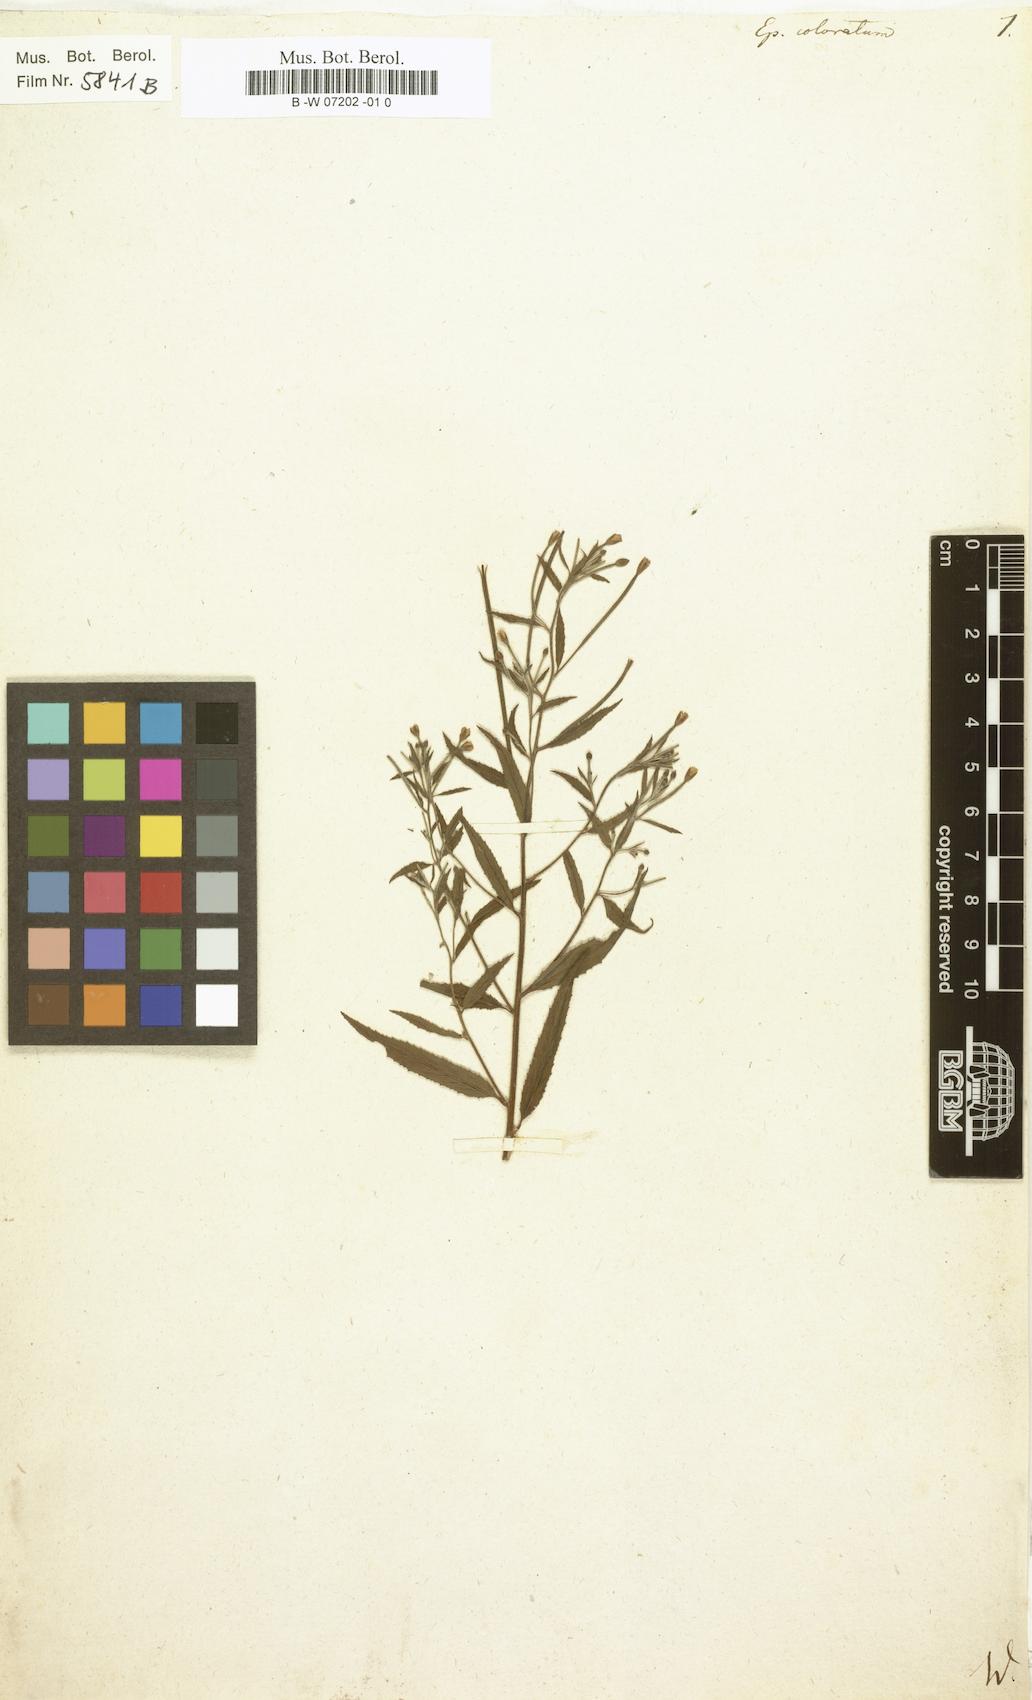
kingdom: Plantae
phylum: Tracheophyta
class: Magnoliopsida
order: Myrtales
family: Onagraceae
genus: Epilobium
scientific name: Epilobium coloratum
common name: Bronze willowherb
